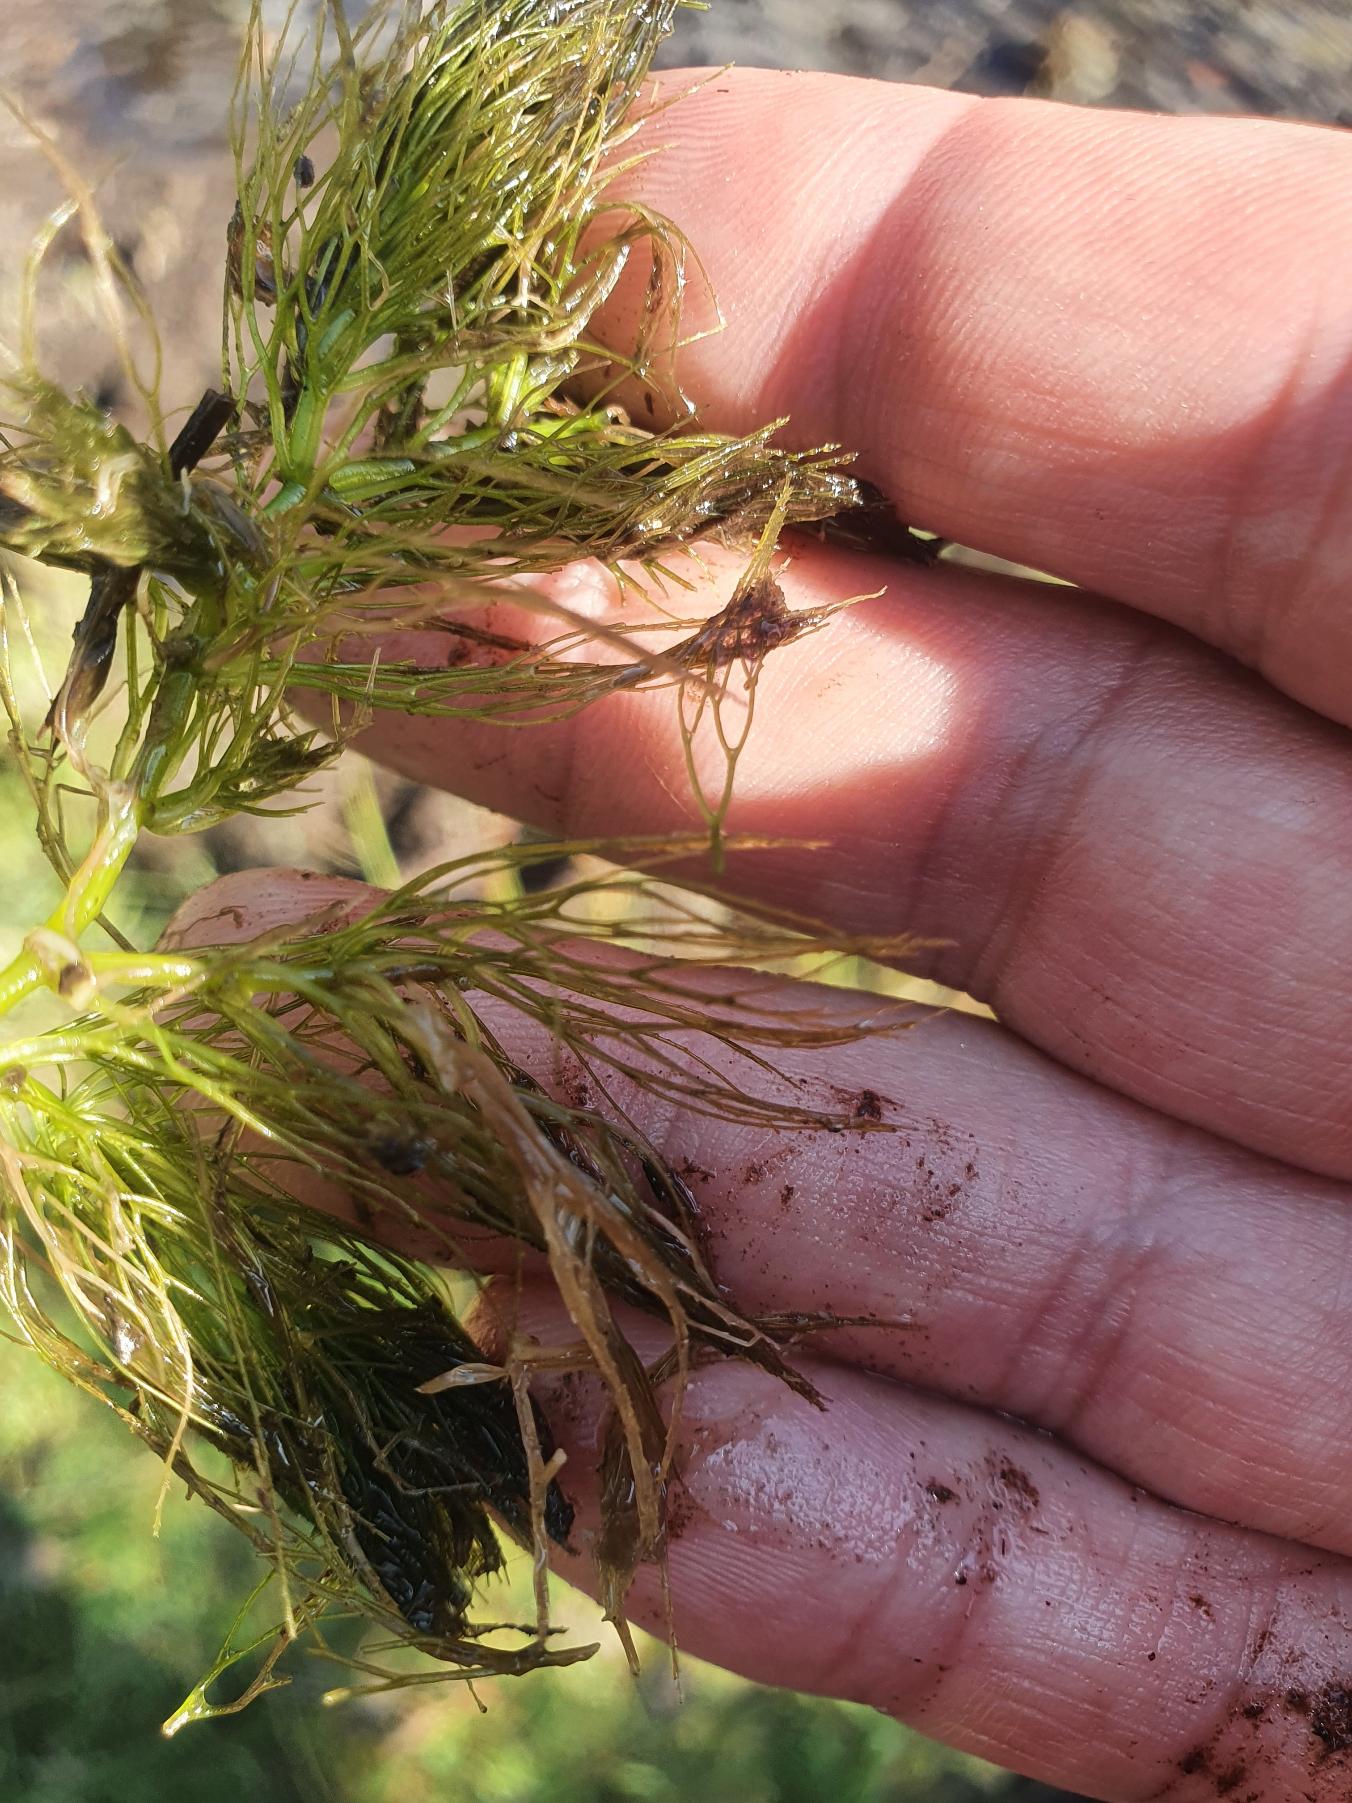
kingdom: Plantae
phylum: Tracheophyta
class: Magnoliopsida
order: Ceratophyllales
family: Ceratophyllaceae
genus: Ceratophyllum
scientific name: Ceratophyllum submersum
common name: Tornløs hornblad
